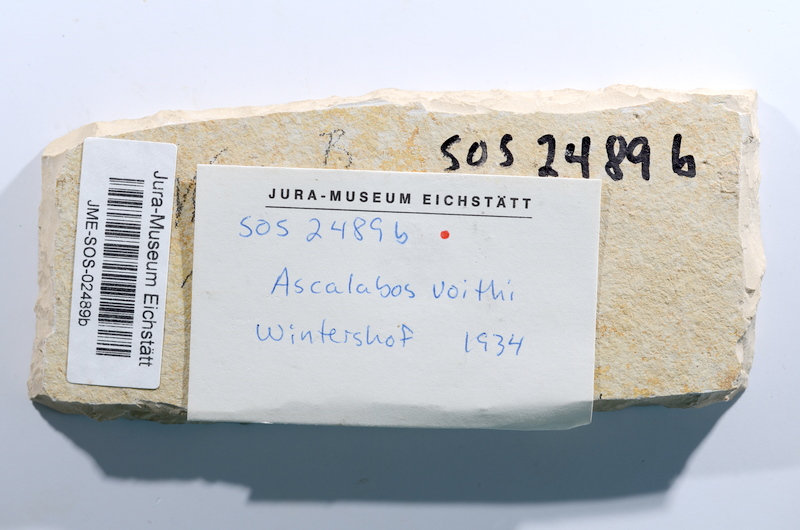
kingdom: Animalia
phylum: Chordata
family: Ascalaboidae
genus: Ascalabos
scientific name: Ascalabos voithii
